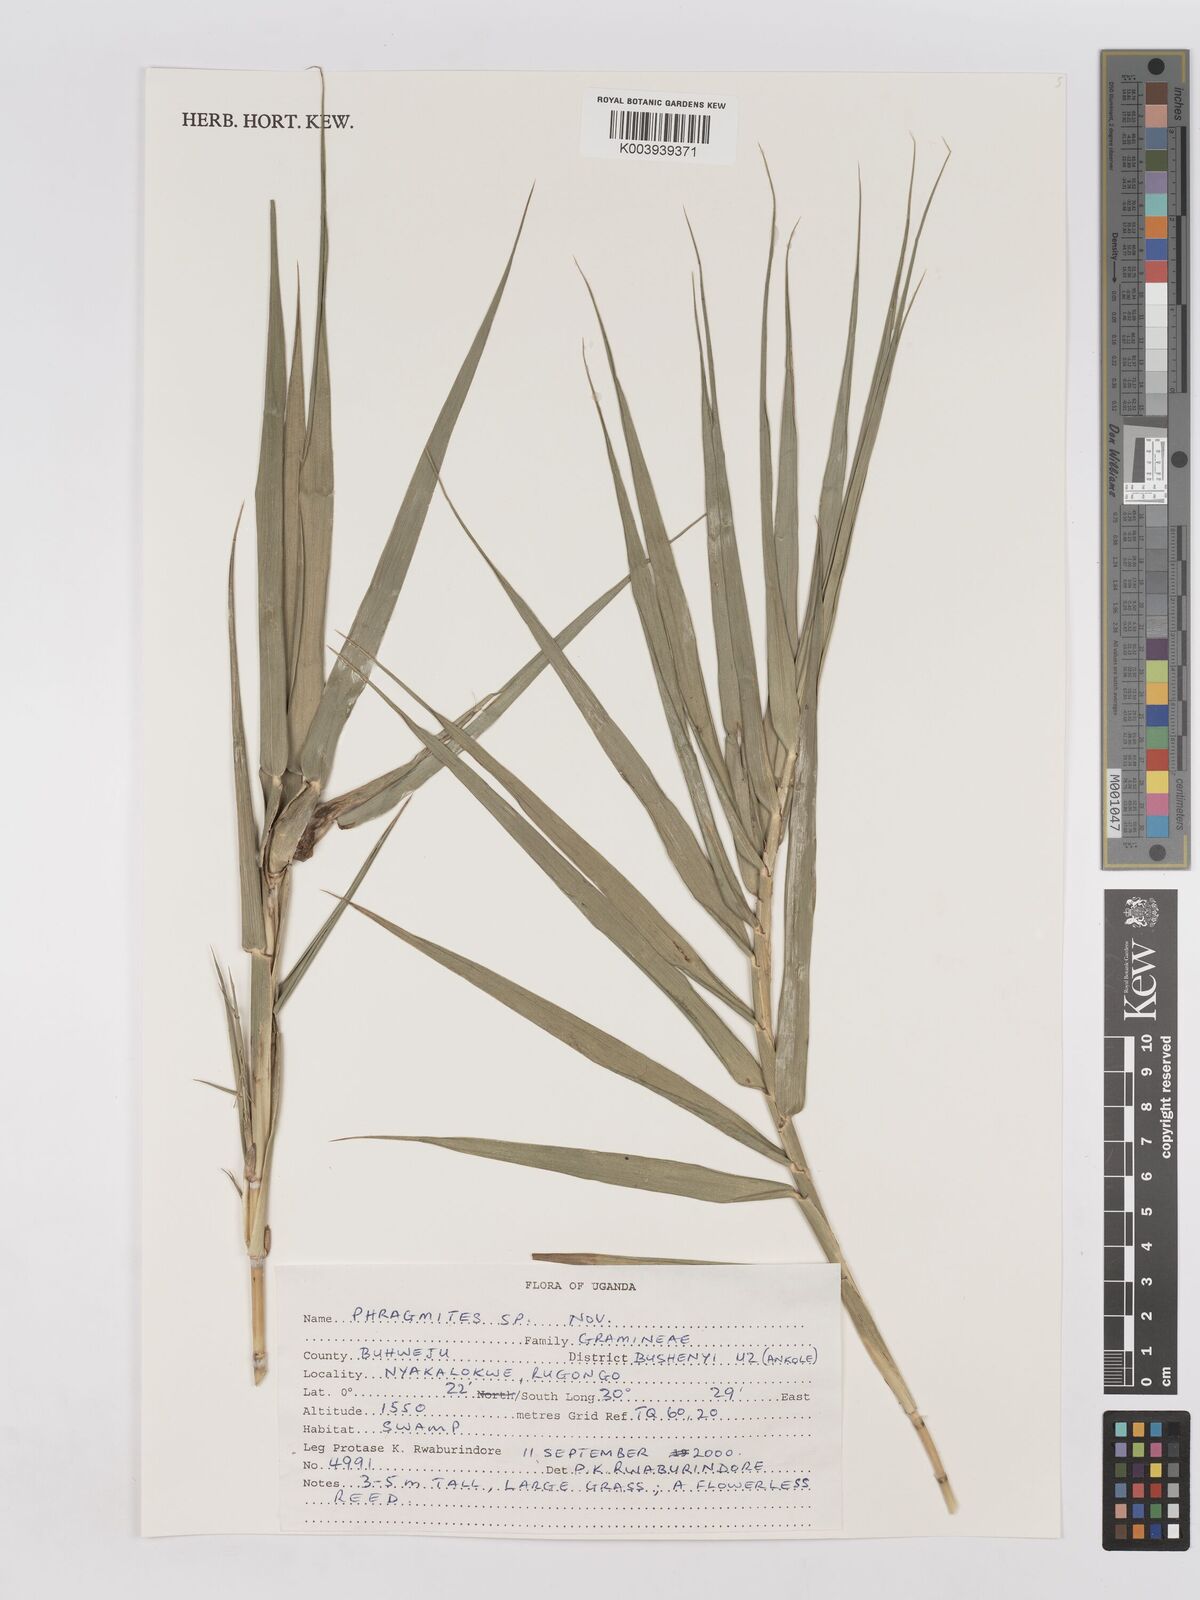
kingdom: Plantae
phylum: Tracheophyta
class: Liliopsida
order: Poales
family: Poaceae
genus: Phragmites
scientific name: Phragmites
